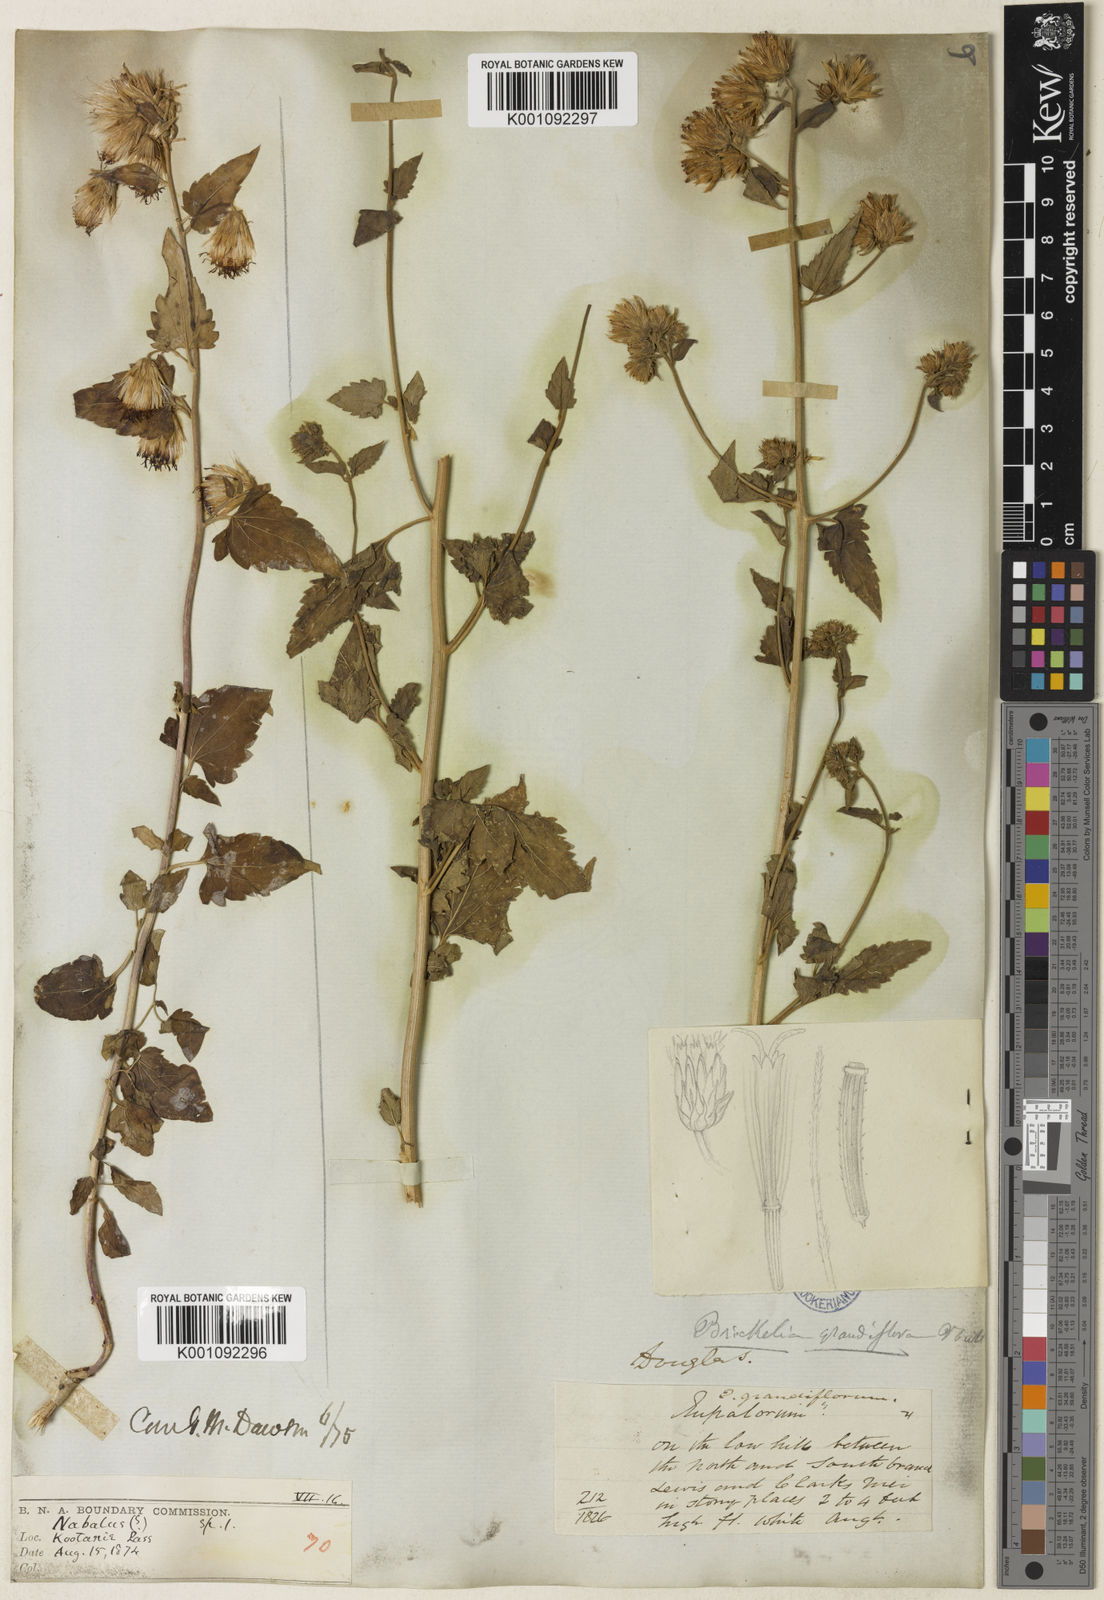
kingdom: Plantae
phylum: Tracheophyta
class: Magnoliopsida
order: Asterales
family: Asteraceae
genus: Brickellia
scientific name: Brickellia grandiflora
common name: Large-flowered brickellia
